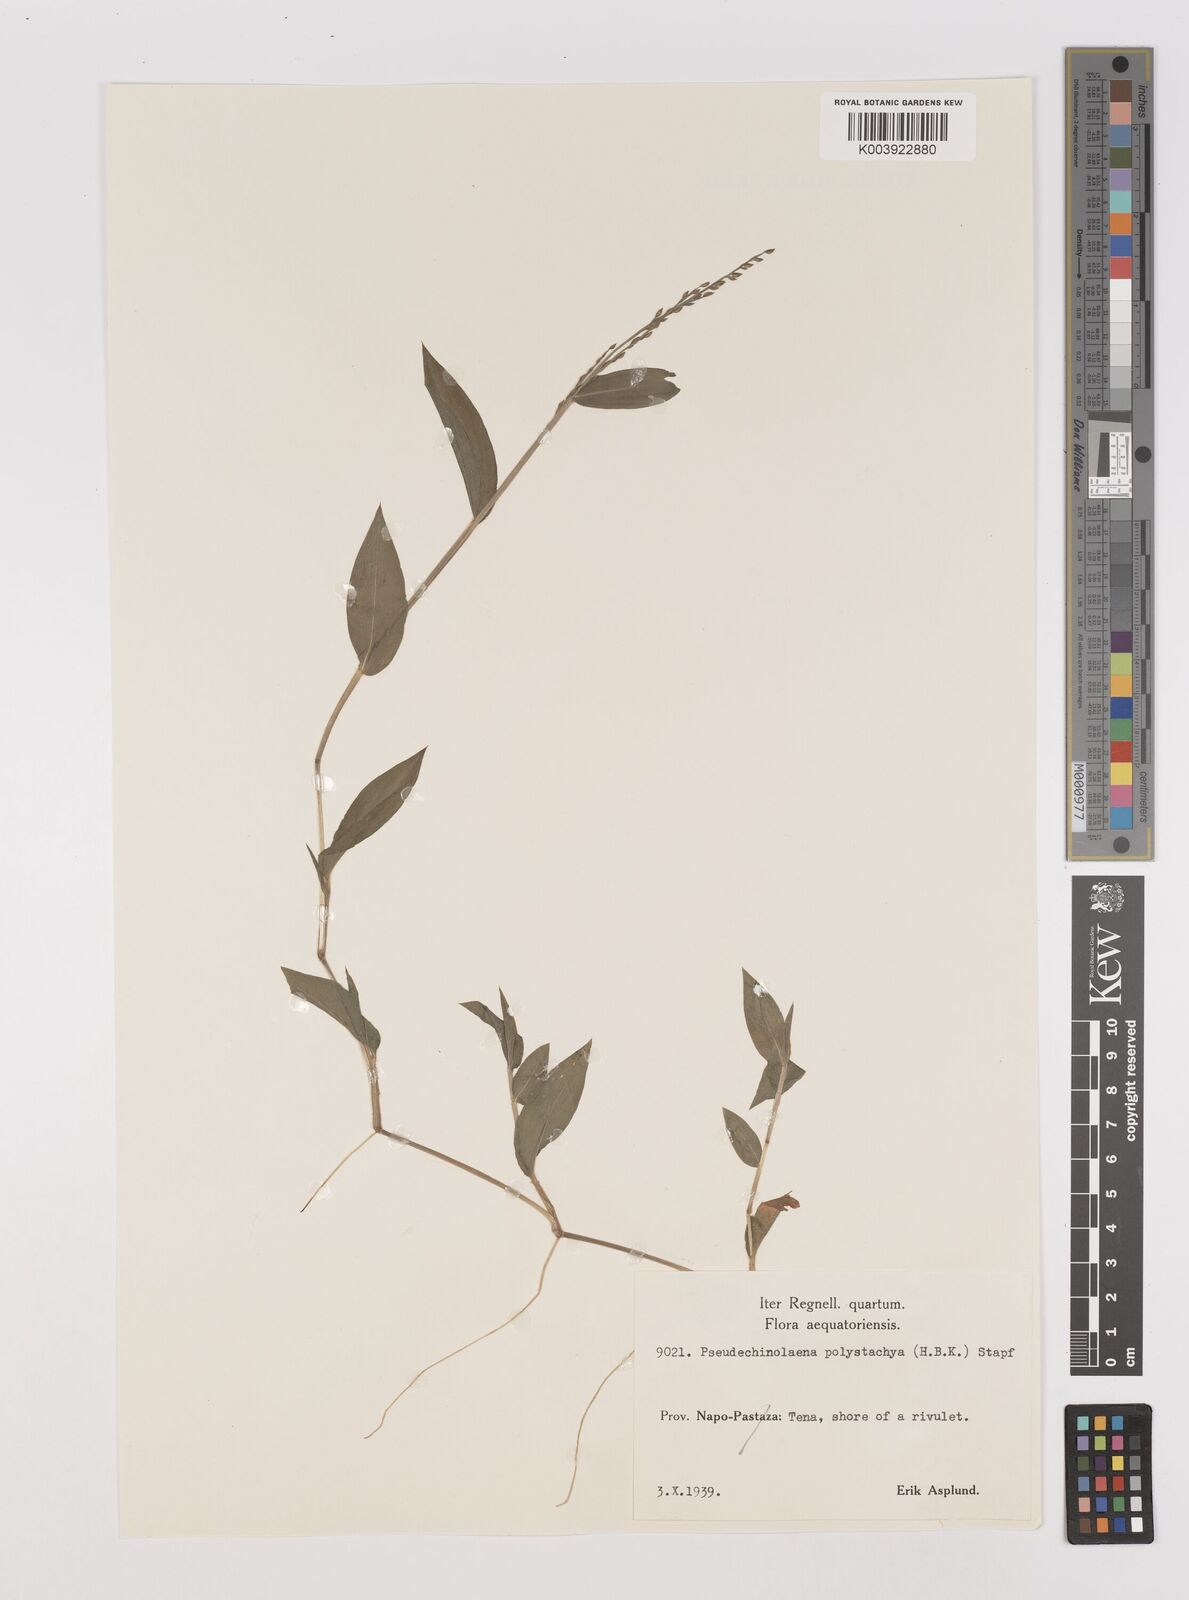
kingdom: Plantae
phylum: Tracheophyta
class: Liliopsida
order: Poales
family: Poaceae
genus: Pseudechinolaena
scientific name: Pseudechinolaena polystachya
